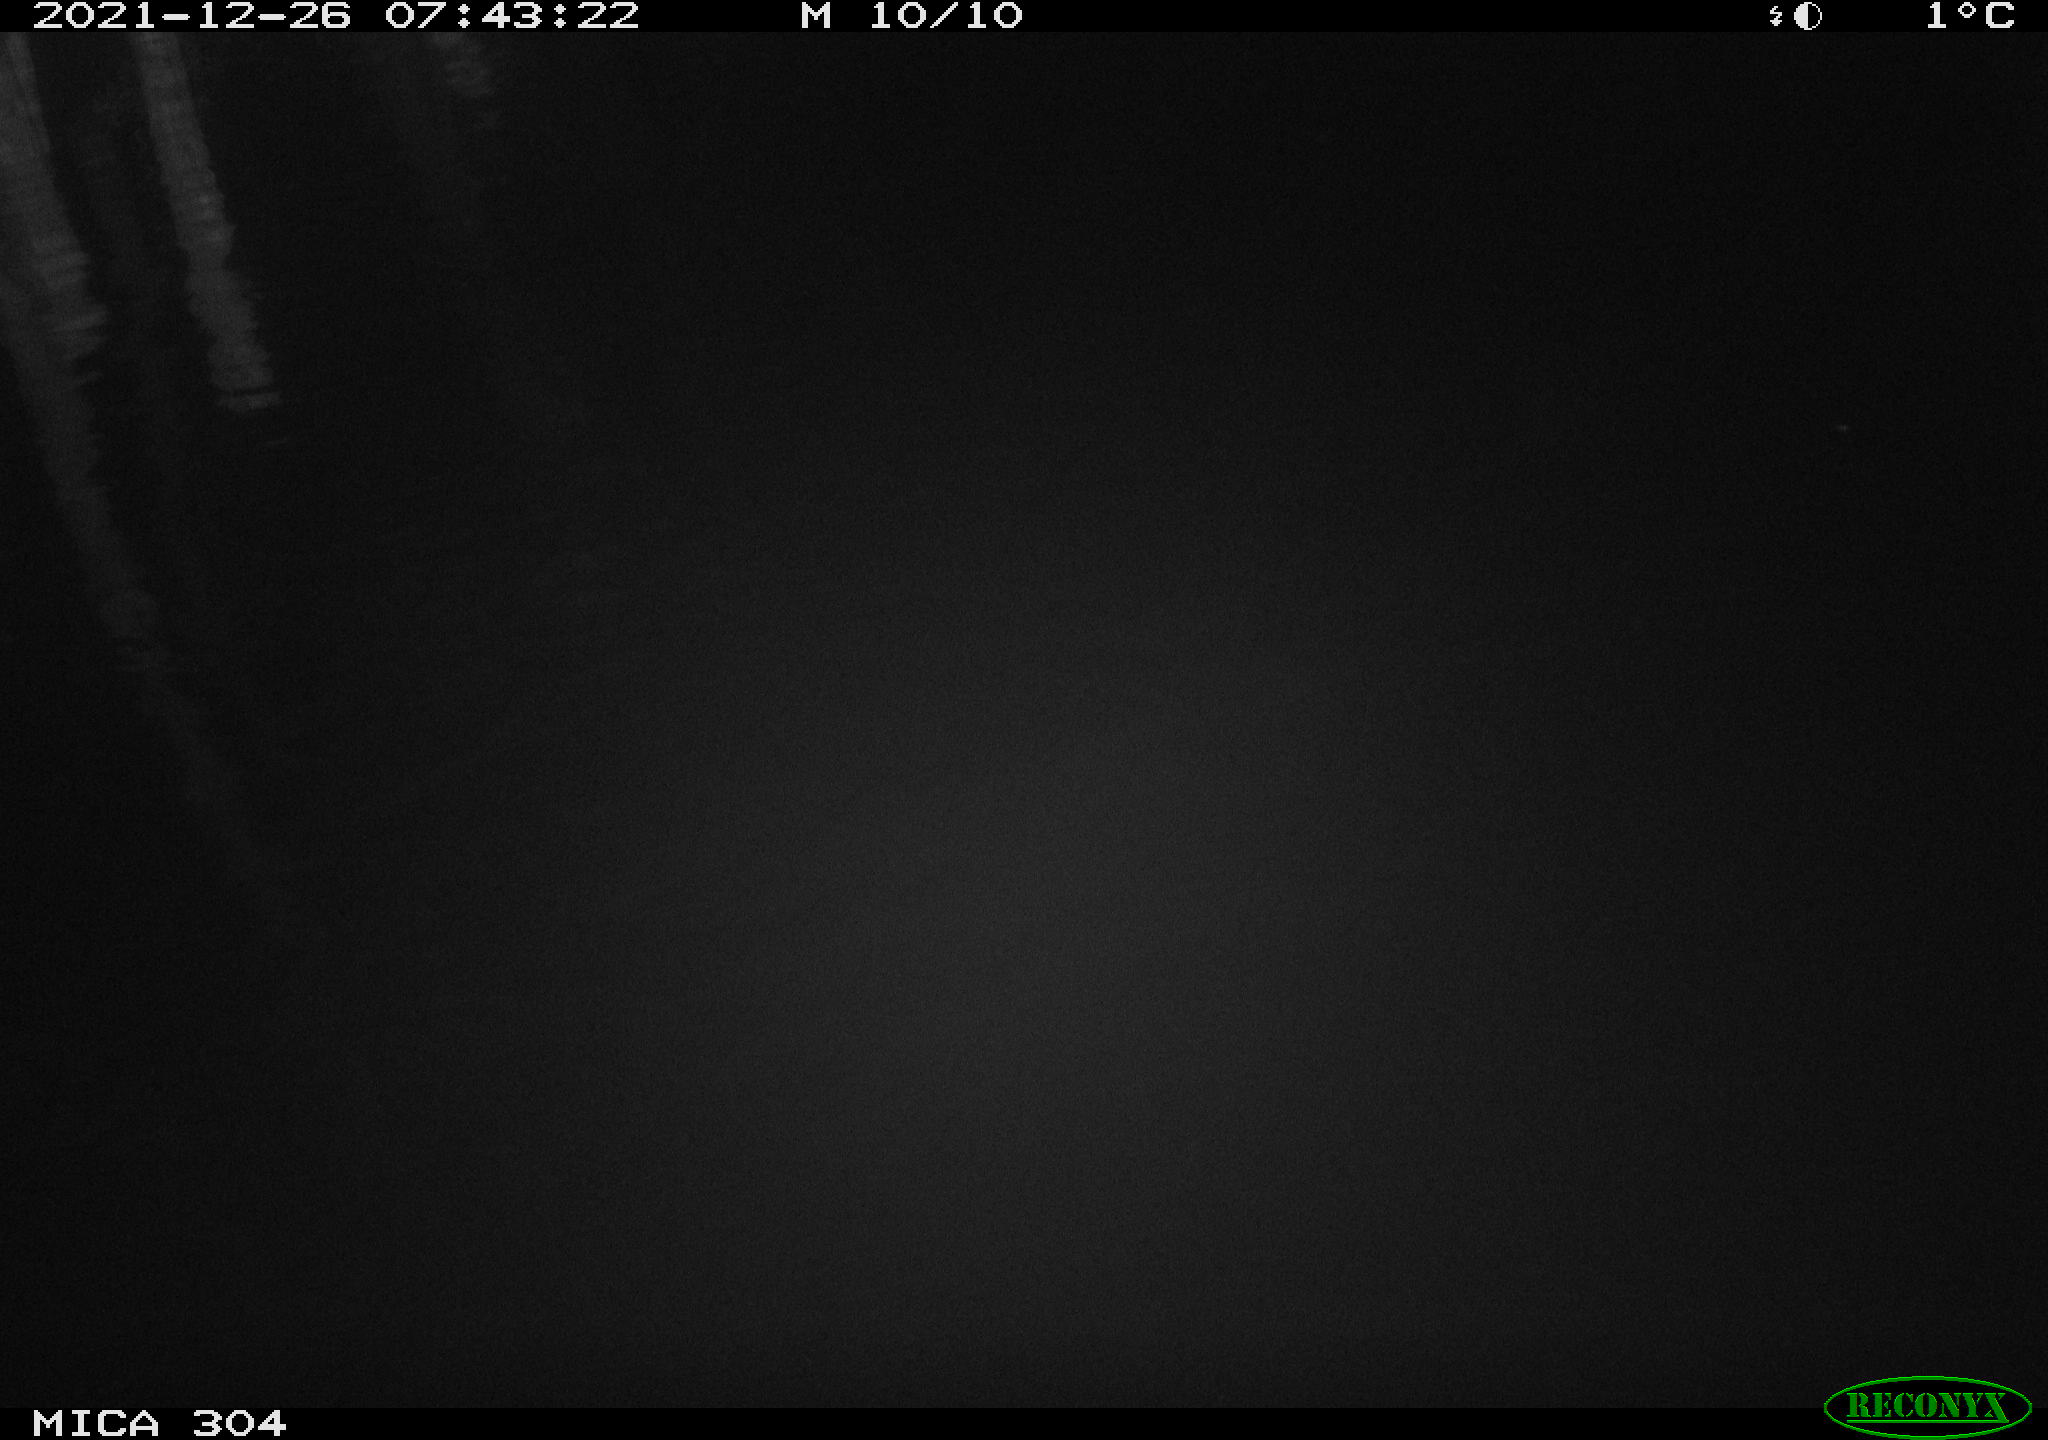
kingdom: Animalia
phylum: Chordata
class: Aves
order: Anseriformes
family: Anatidae
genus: Anas
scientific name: Anas
